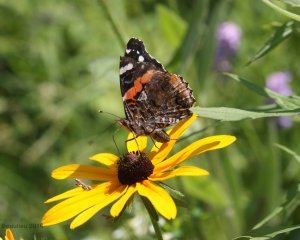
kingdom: Animalia
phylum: Arthropoda
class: Insecta
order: Lepidoptera
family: Nymphalidae
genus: Vanessa
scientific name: Vanessa atalanta
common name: Red Admiral
